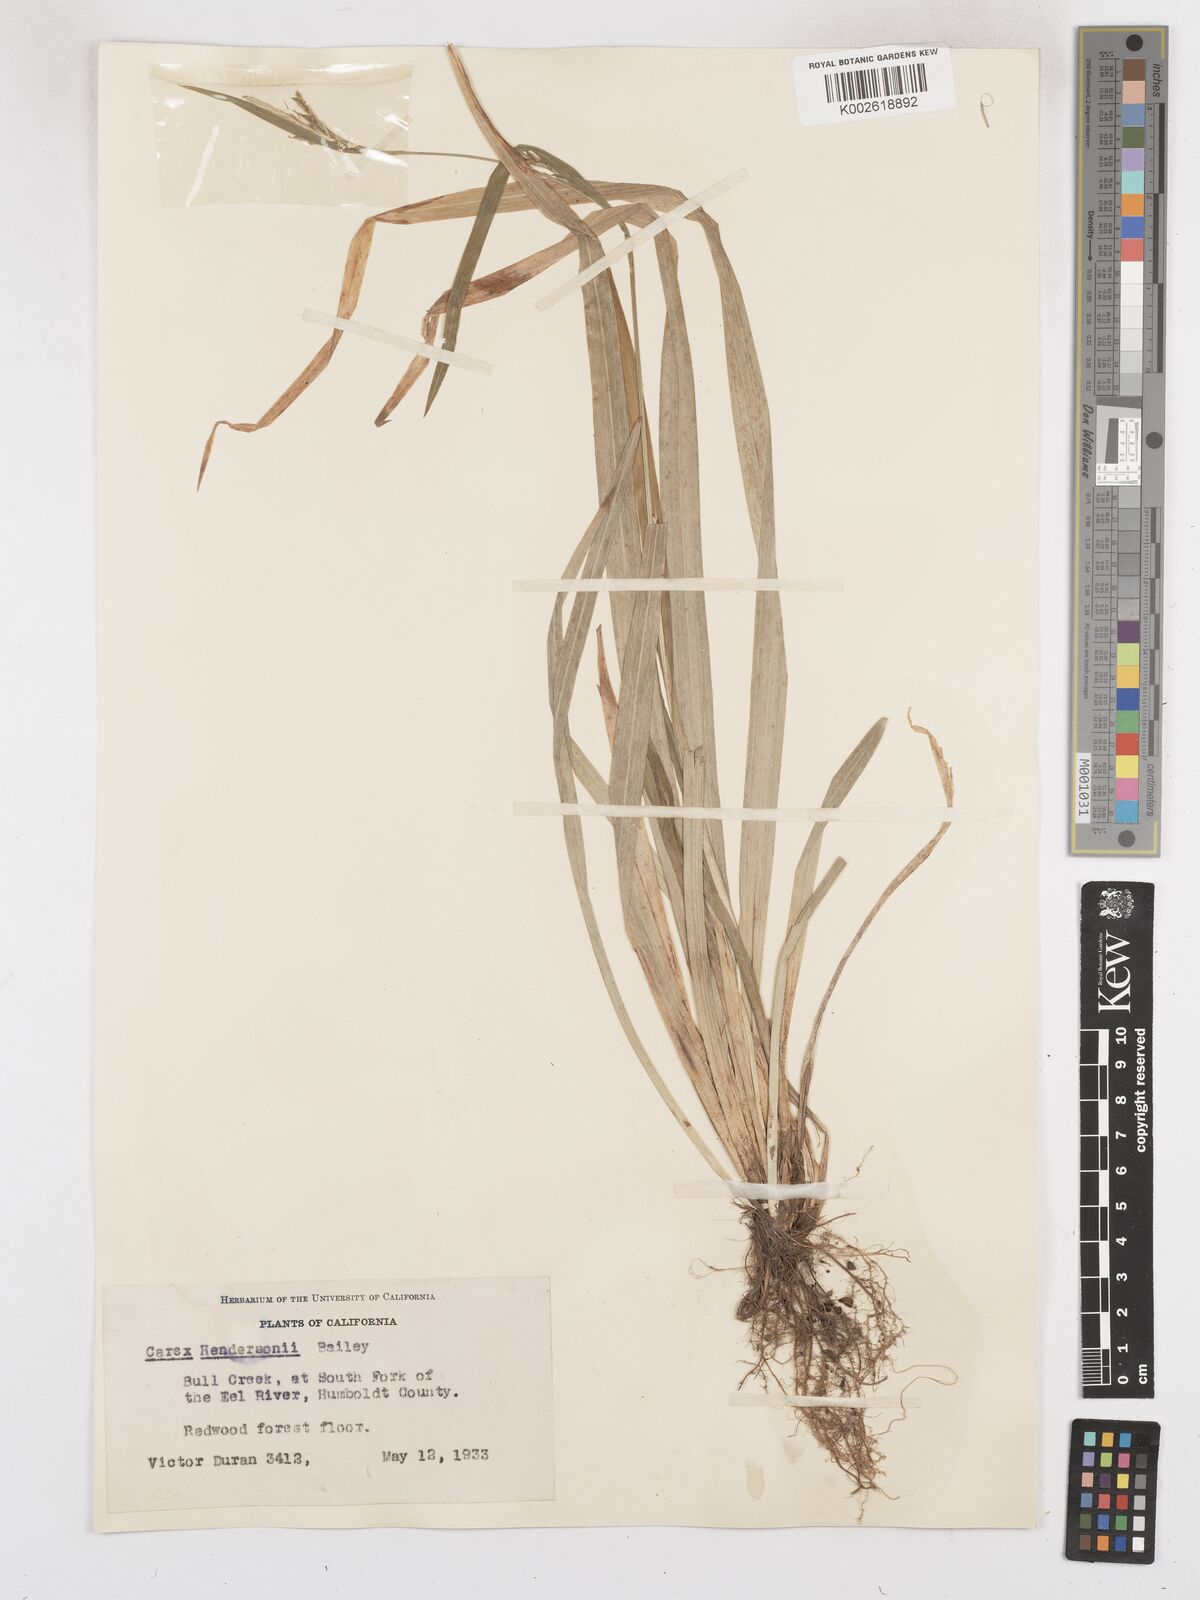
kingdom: Plantae
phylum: Tracheophyta
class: Liliopsida
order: Poales
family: Cyperaceae
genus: Carex
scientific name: Carex hendersonii
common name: Henderson's sedge
